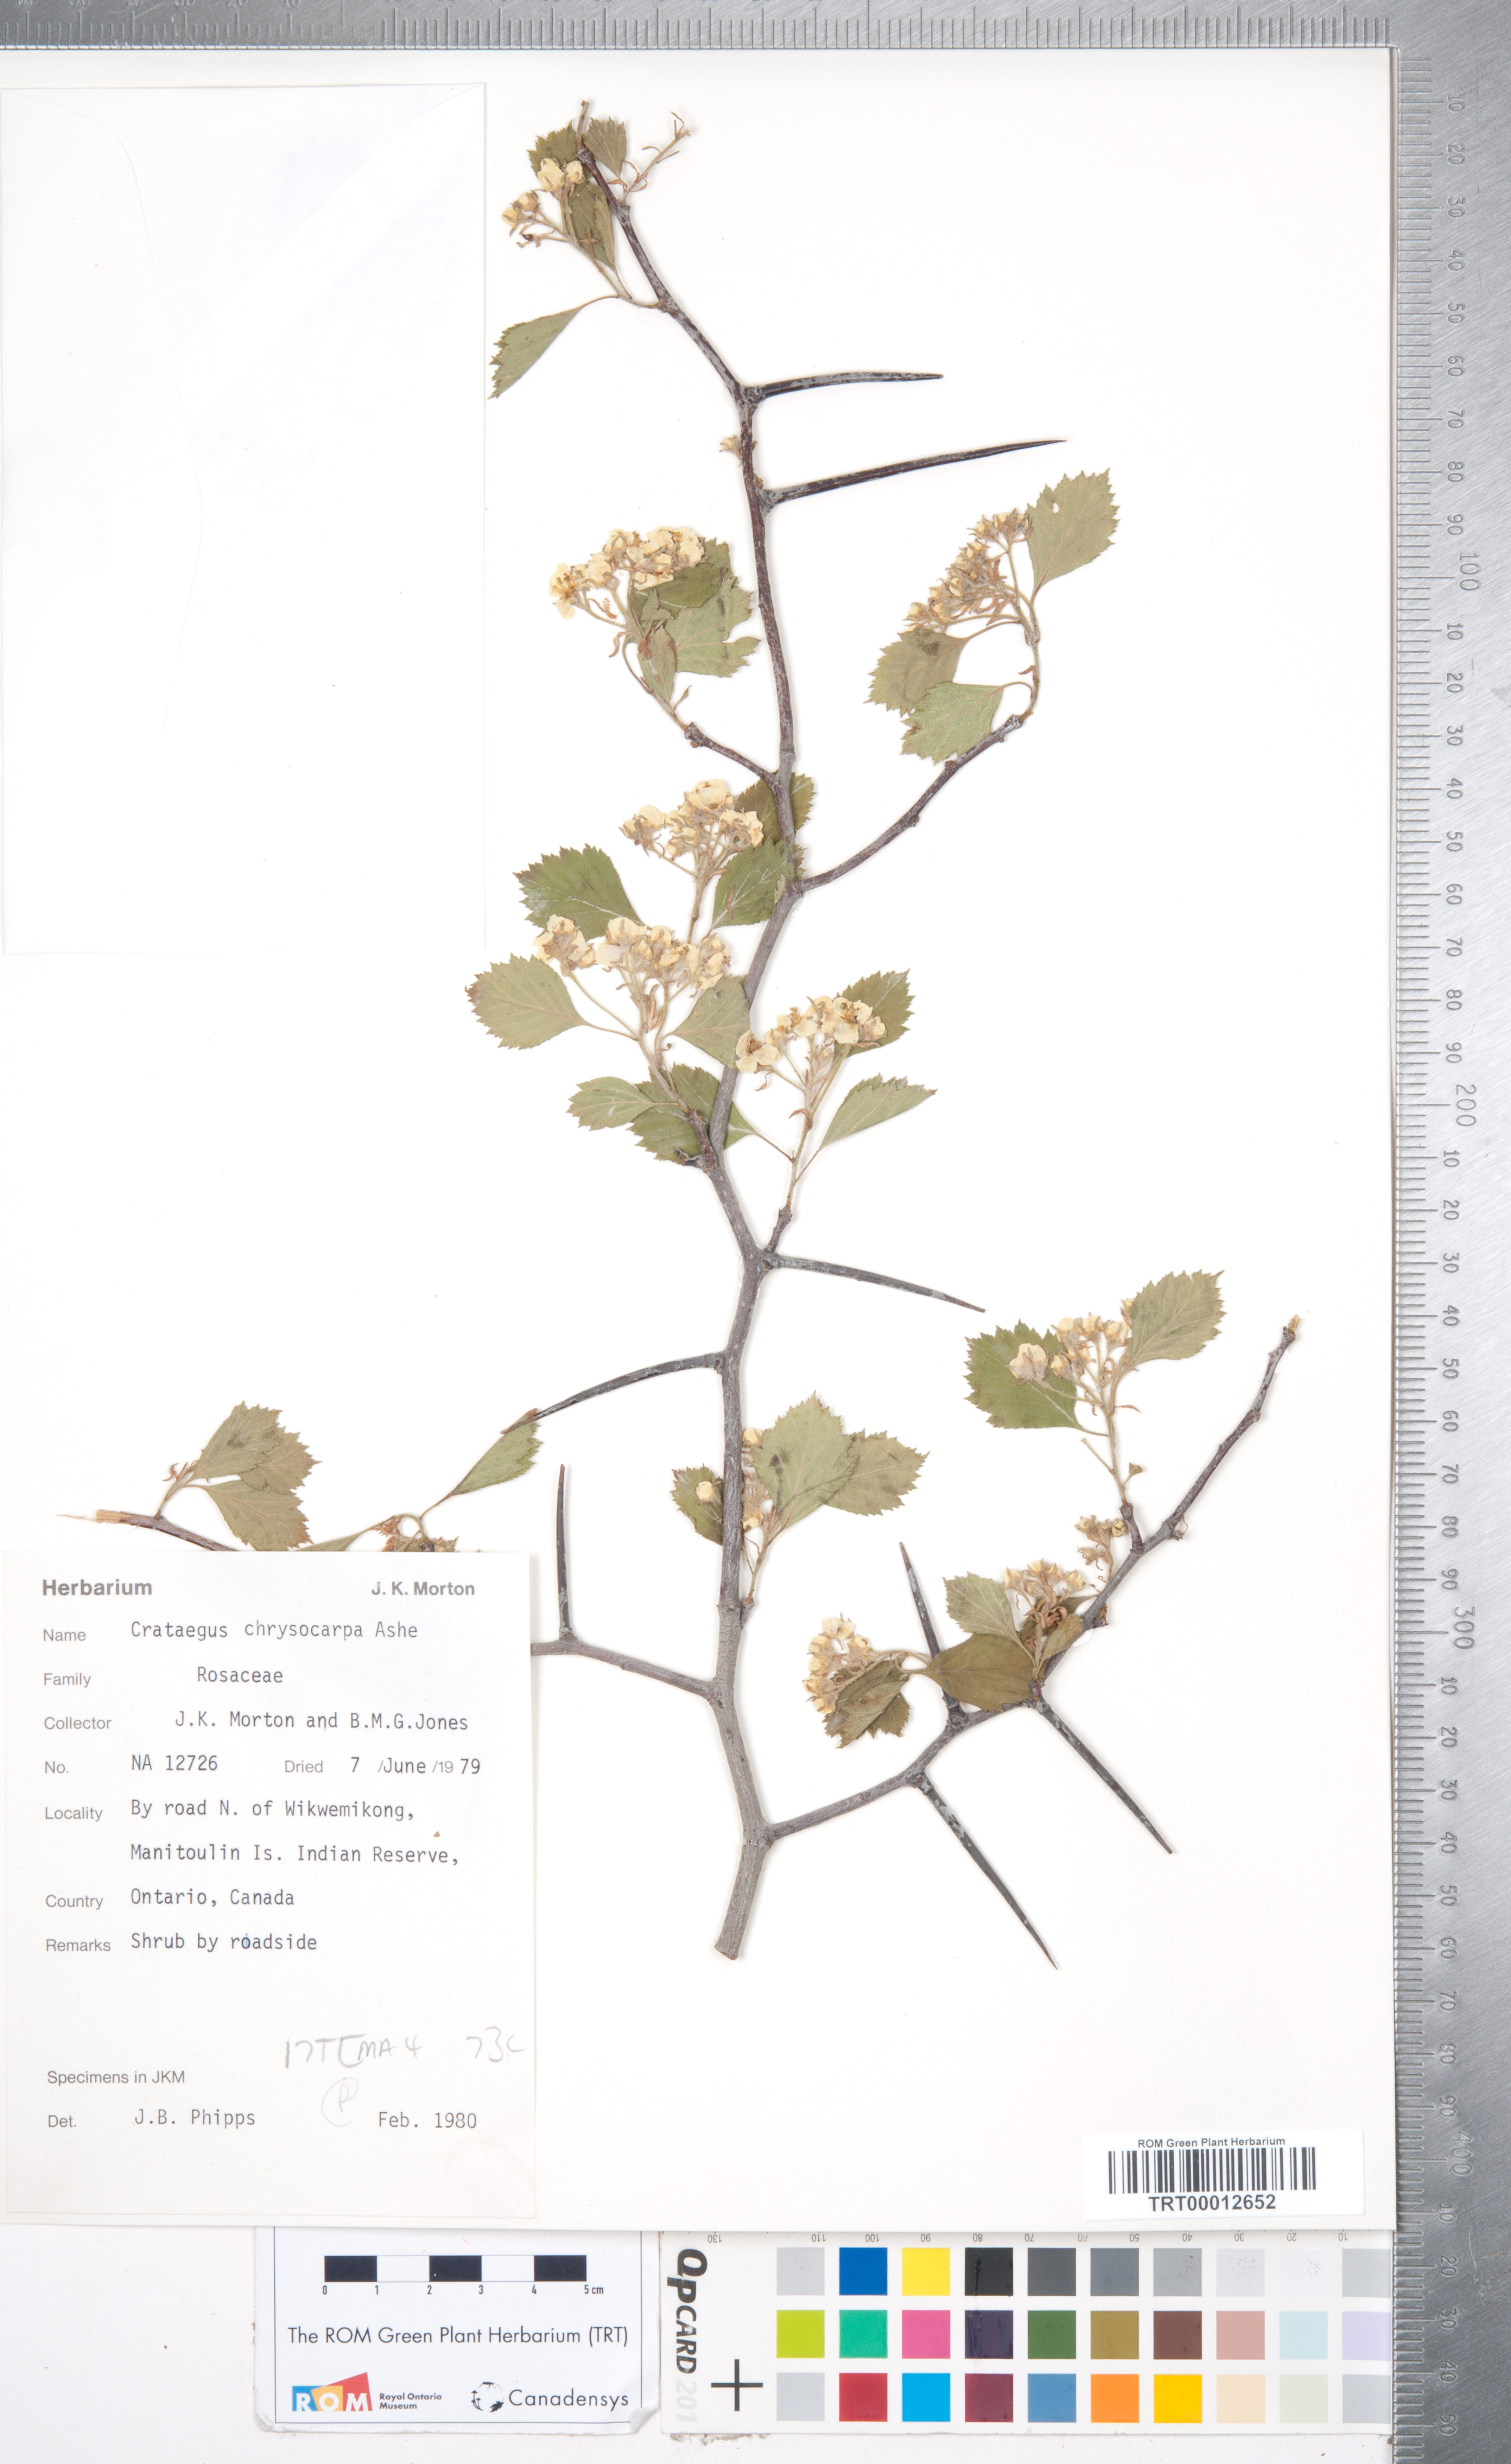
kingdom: Plantae
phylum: Tracheophyta
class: Magnoliopsida
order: Rosales
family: Rosaceae
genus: Crataegus
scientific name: Crataegus chrysocarpa
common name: Fire-berry hawthorn
